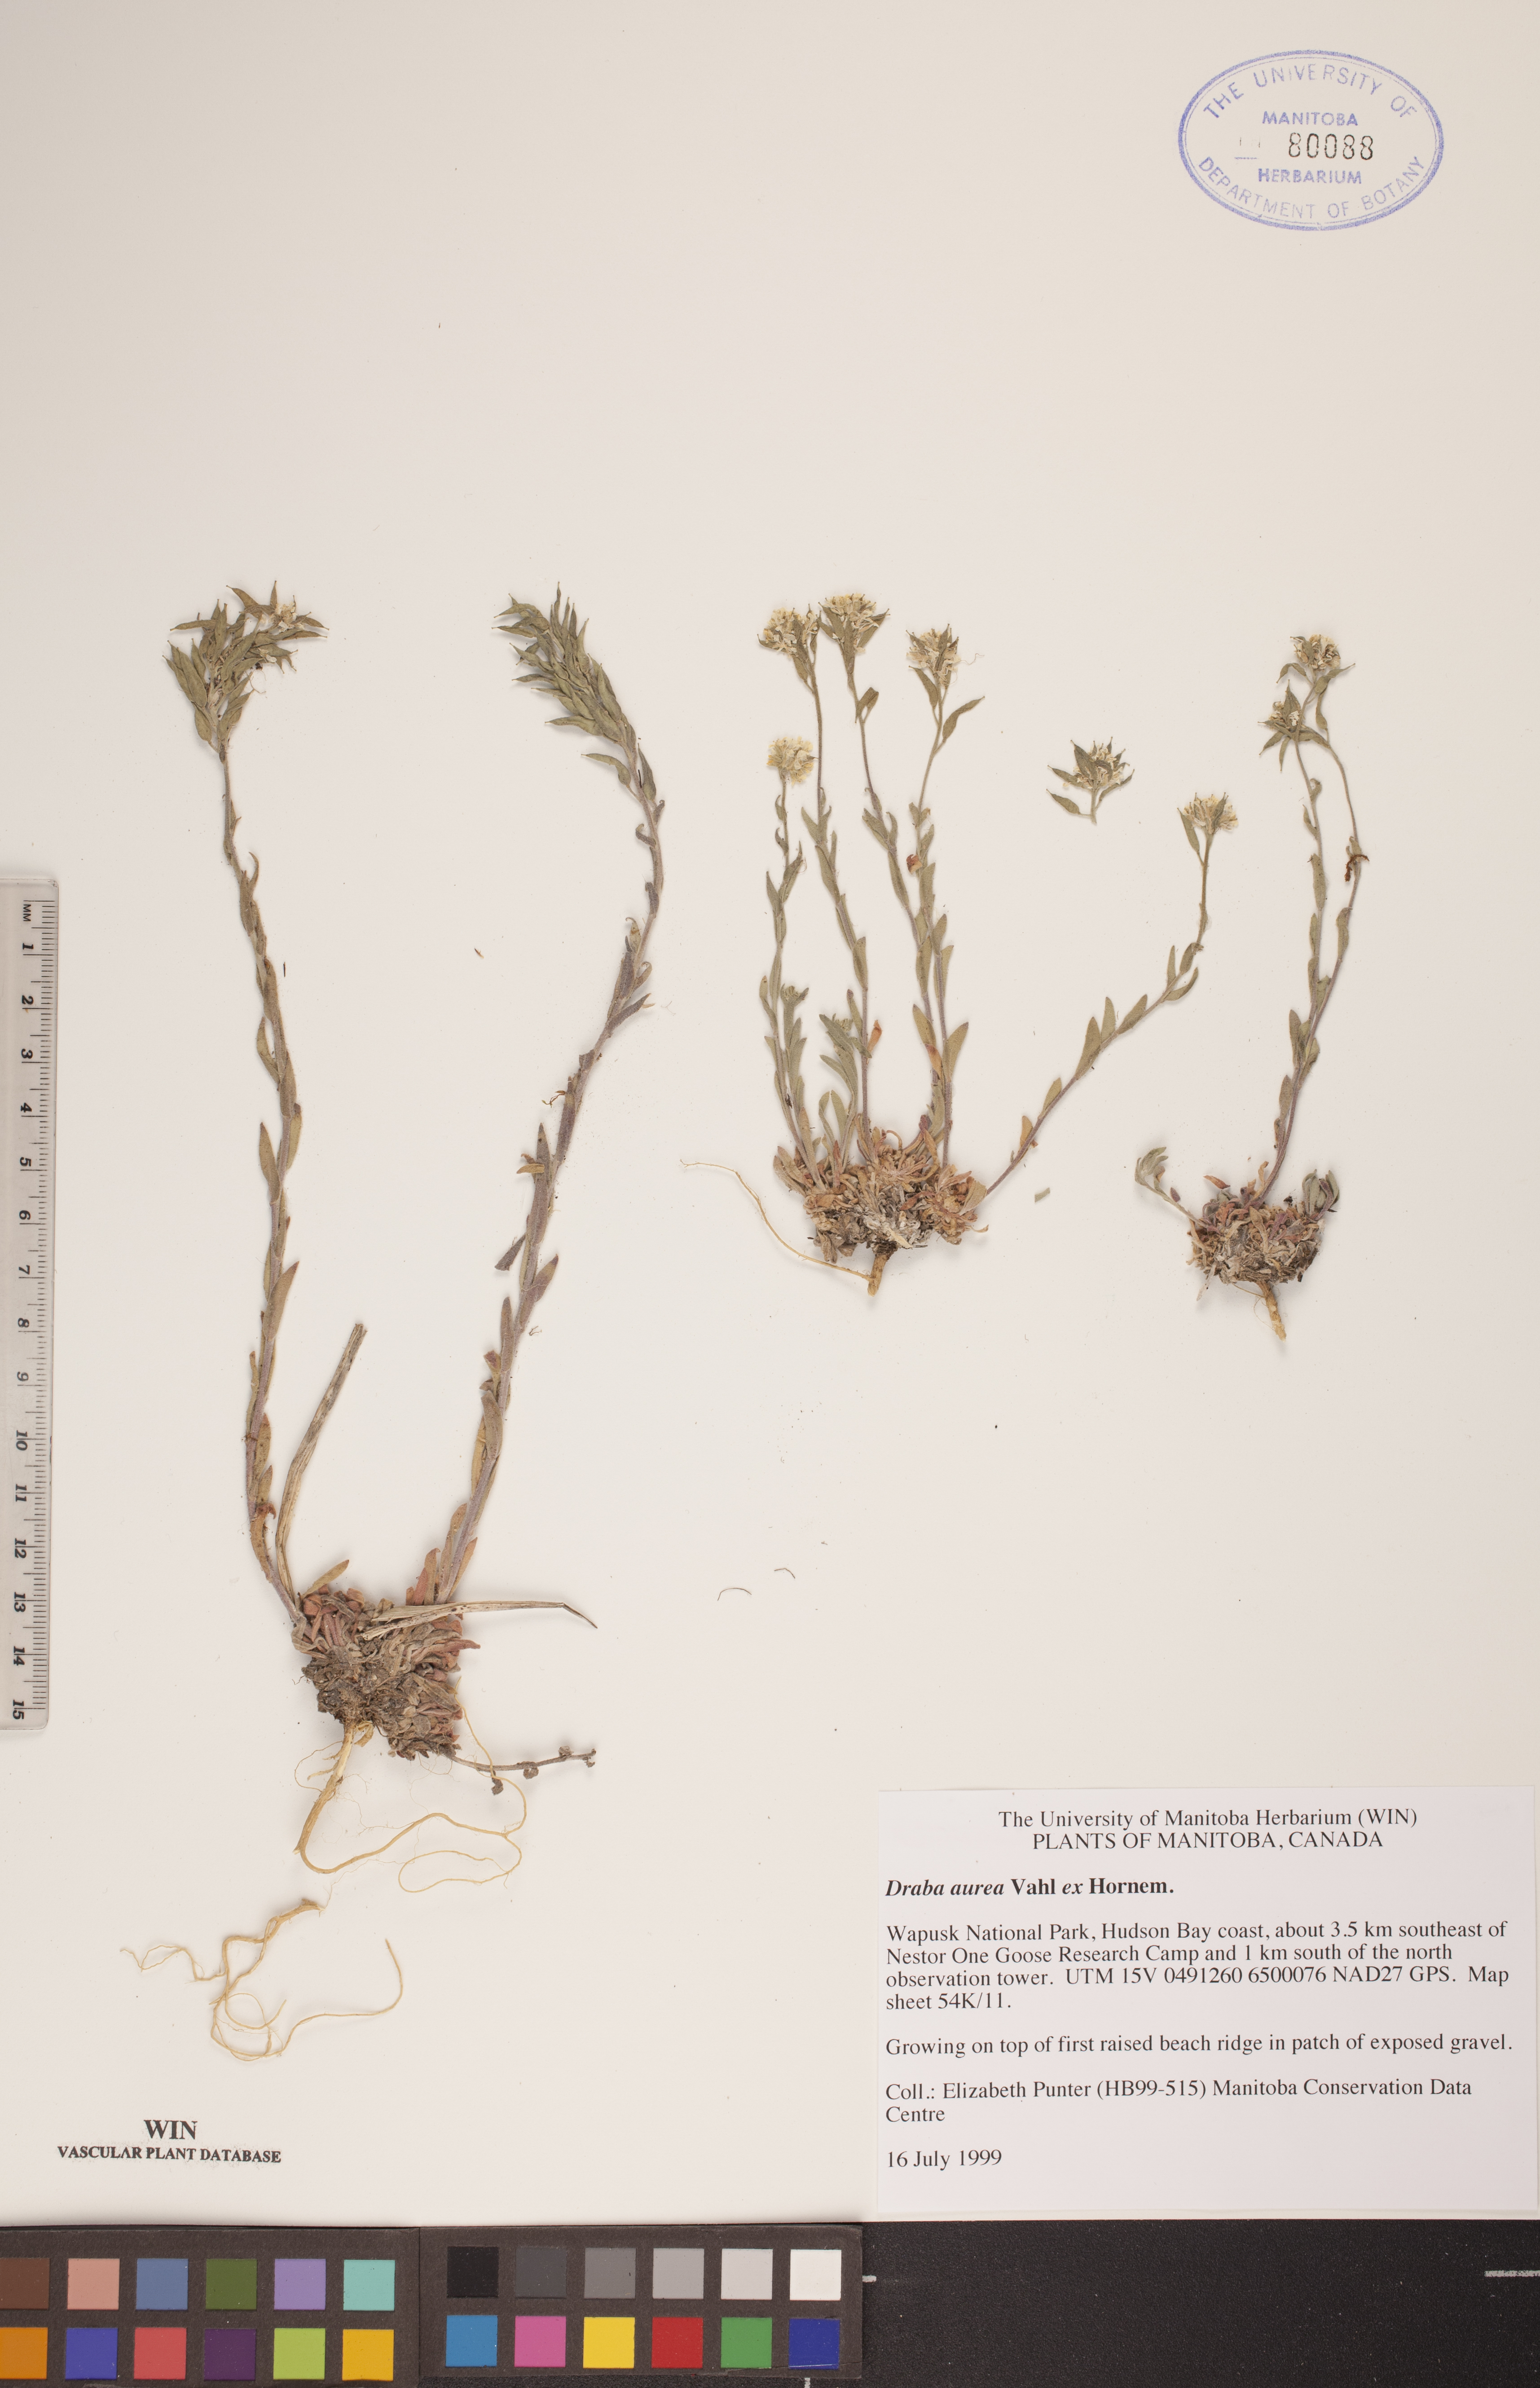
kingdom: Plantae
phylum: Tracheophyta
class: Magnoliopsida
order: Brassicales
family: Brassicaceae
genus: Draba
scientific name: Draba aurea
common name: Golden draba
